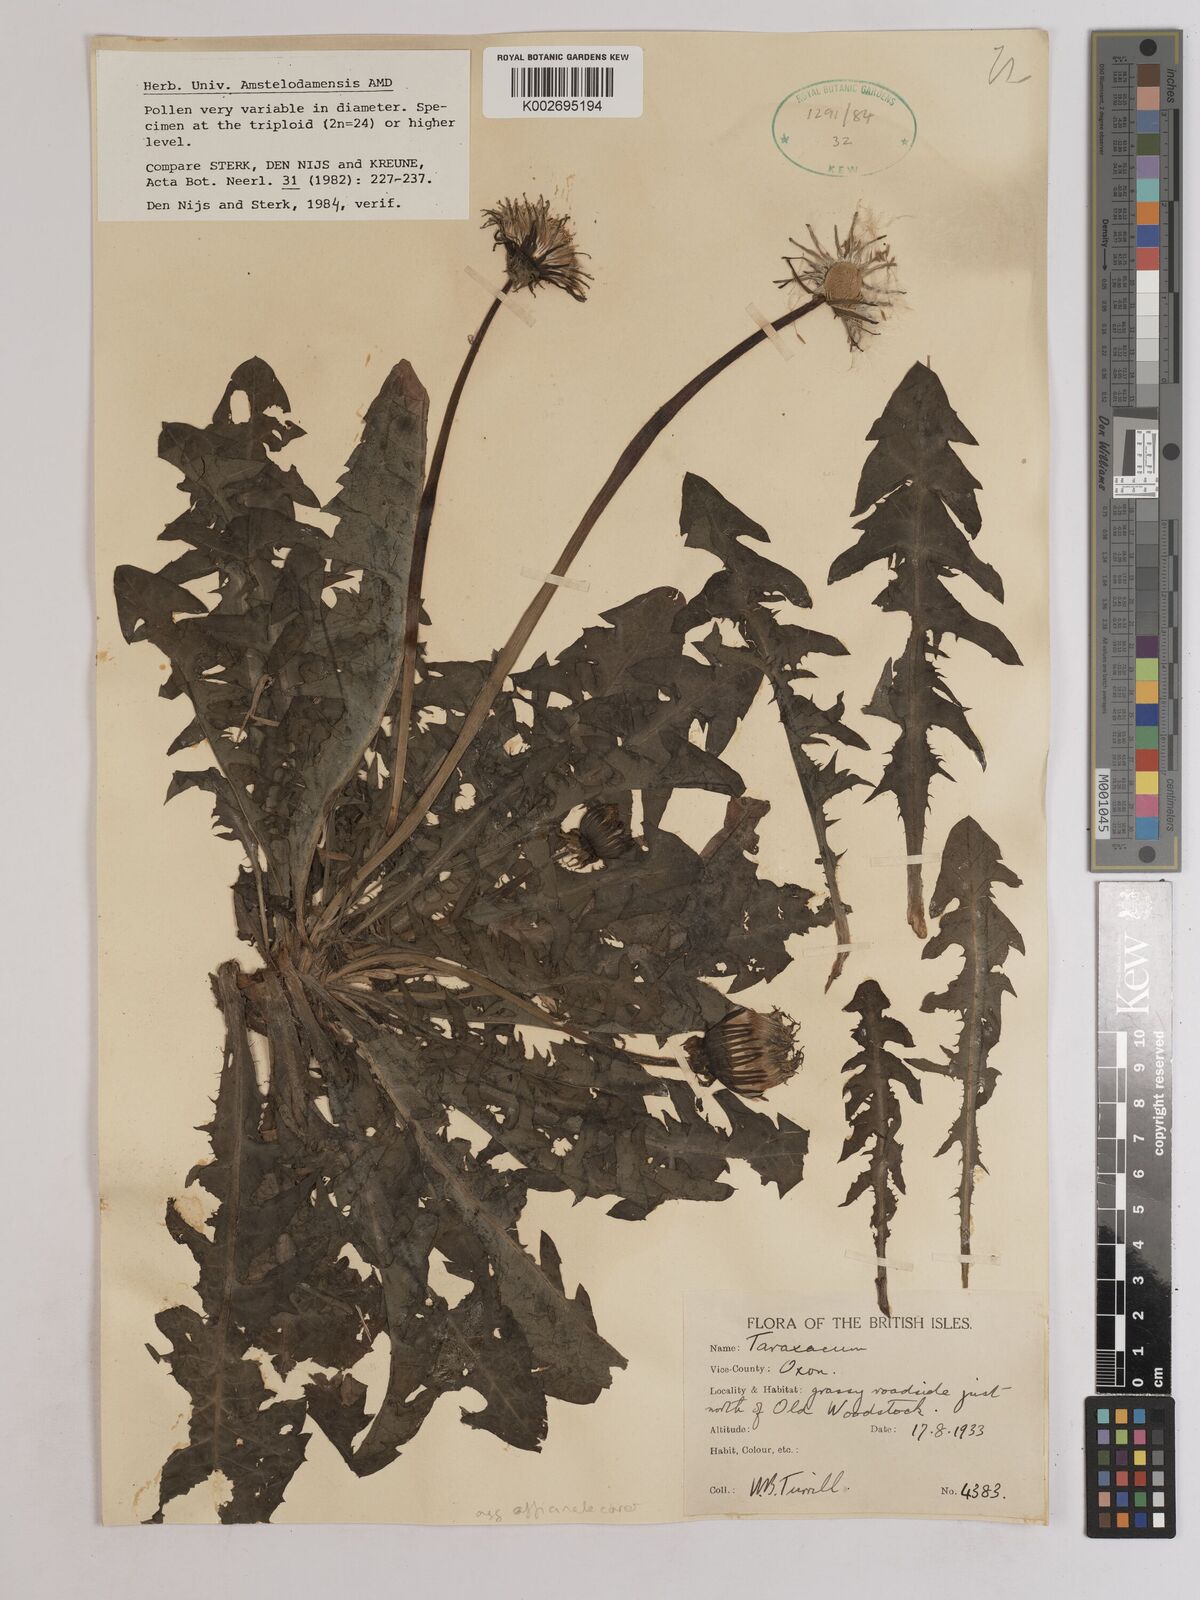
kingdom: Plantae
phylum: Tracheophyta
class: Magnoliopsida
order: Asterales
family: Asteraceae
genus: Taraxacum
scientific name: Taraxacum officinale
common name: Common dandelion
